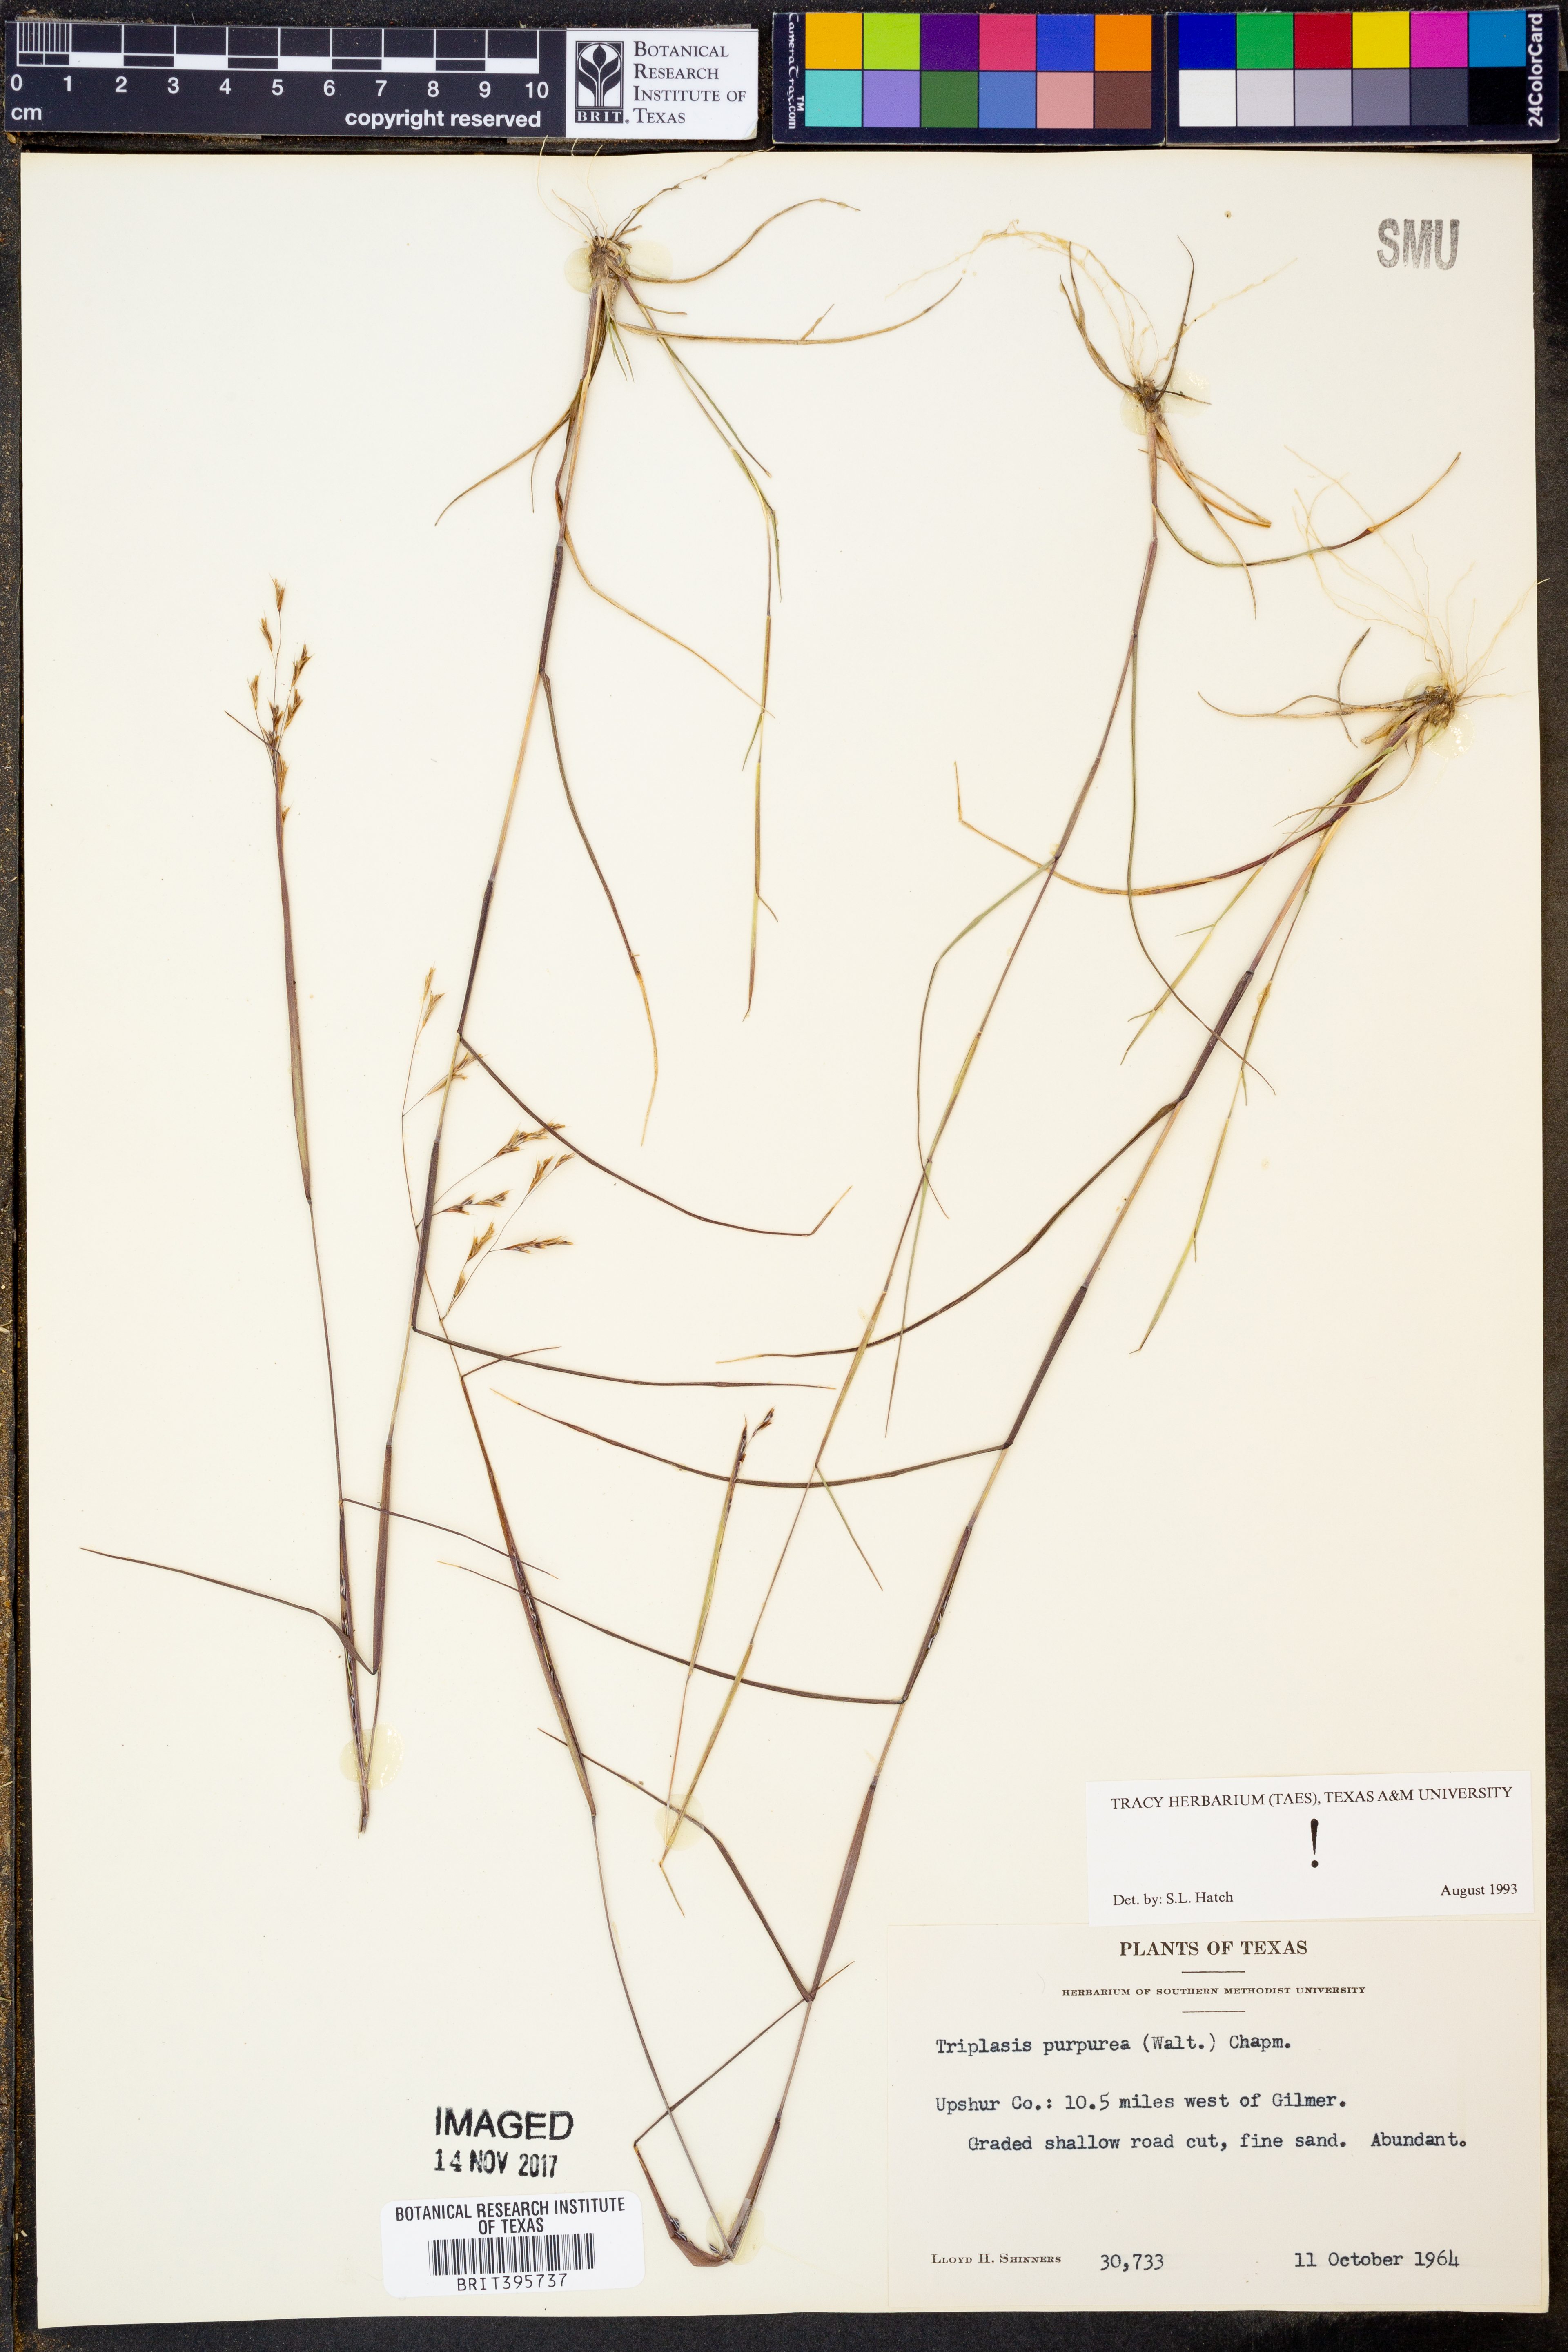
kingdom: Plantae
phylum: Tracheophyta
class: Liliopsida
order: Poales
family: Poaceae
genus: Triplasis
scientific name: Triplasis purpurea
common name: Purple sand grass
